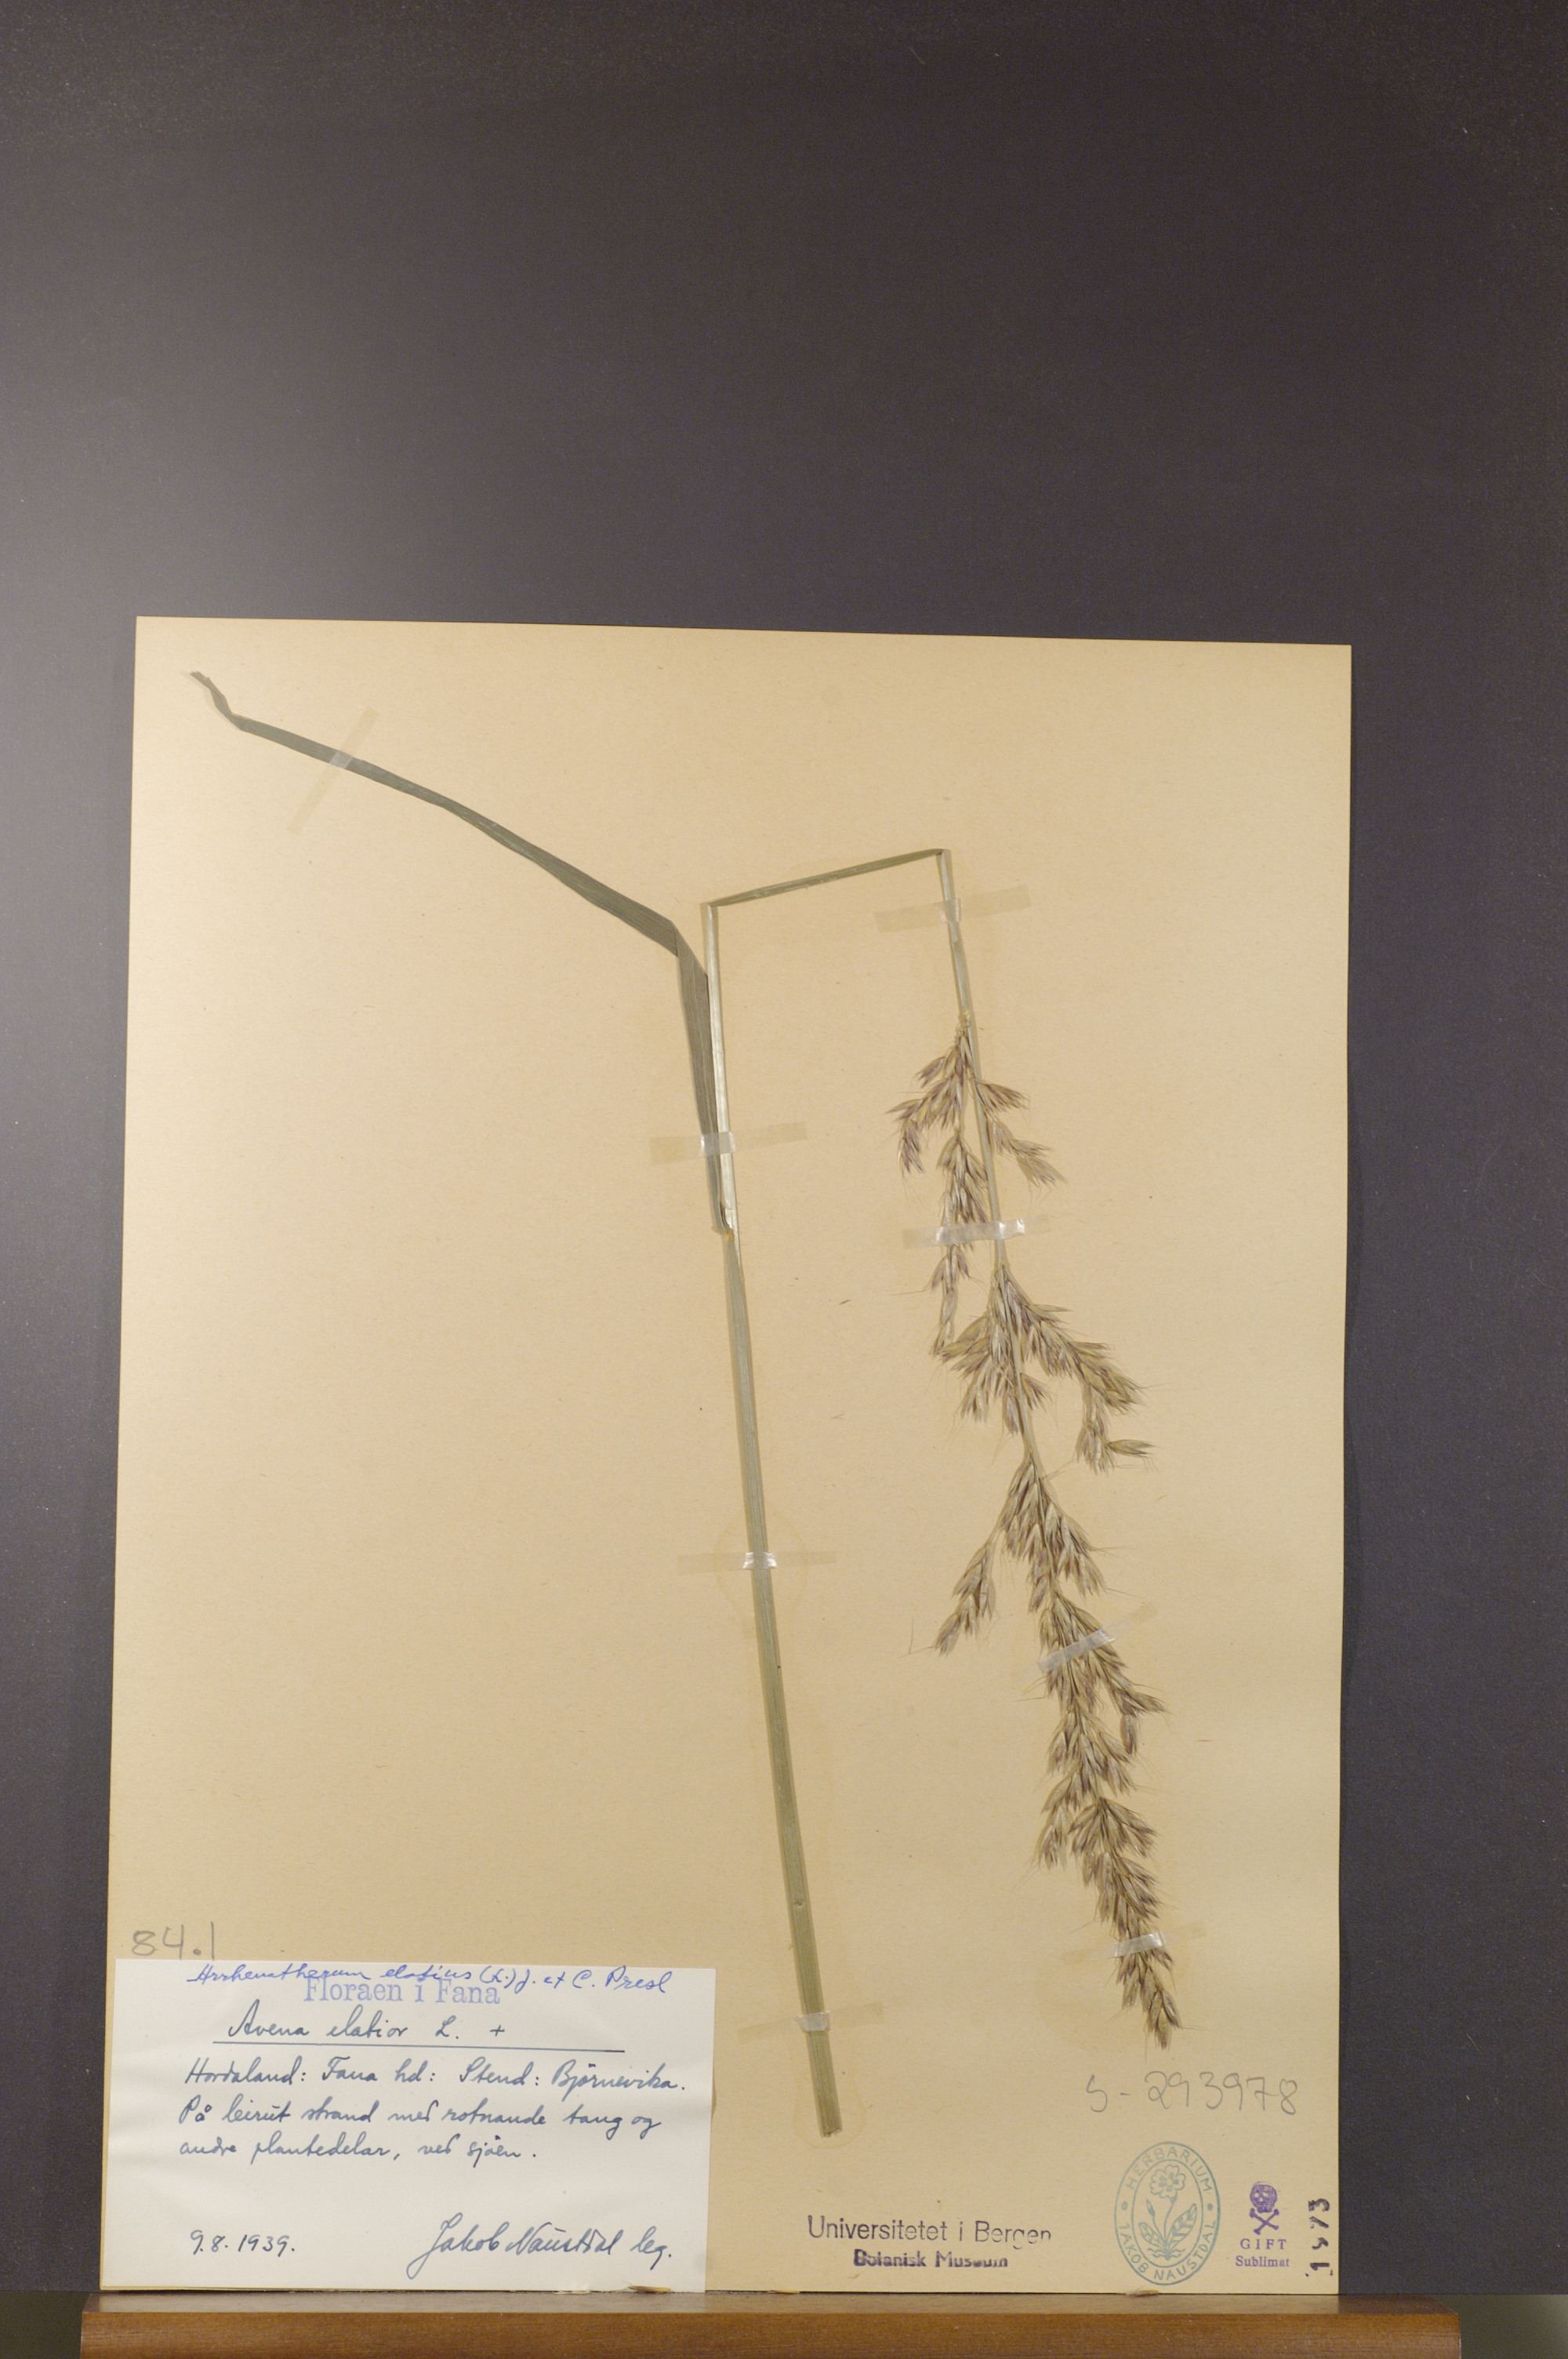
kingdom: Plantae
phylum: Tracheophyta
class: Liliopsida
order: Poales
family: Poaceae
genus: Arrhenatherum
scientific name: Arrhenatherum elatius
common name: Tall oatgrass
